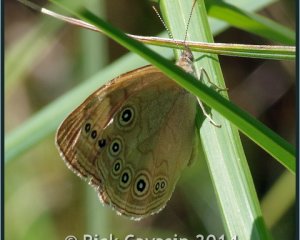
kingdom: Animalia
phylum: Arthropoda
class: Insecta
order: Lepidoptera
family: Nymphalidae
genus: Lethe
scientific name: Lethe eurydice
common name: Eyed Brown
